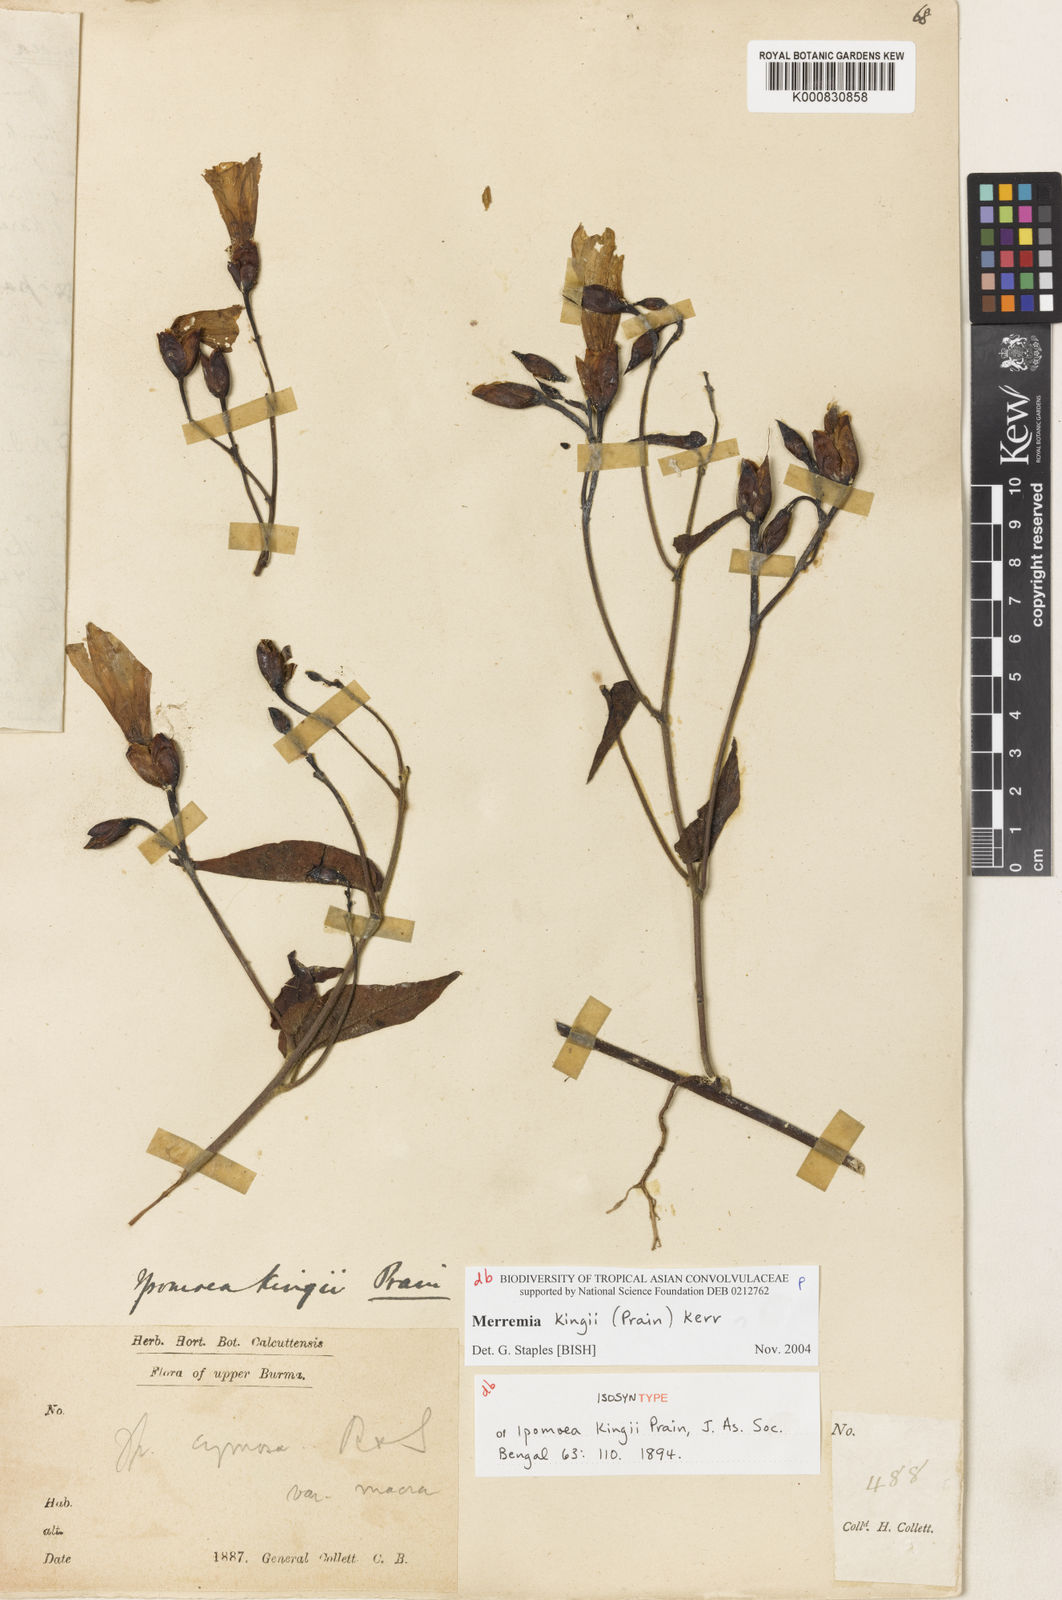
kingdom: Plantae
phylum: Tracheophyta
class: Magnoliopsida
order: Solanales
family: Convolvulaceae
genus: Camonea
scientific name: Camonea
